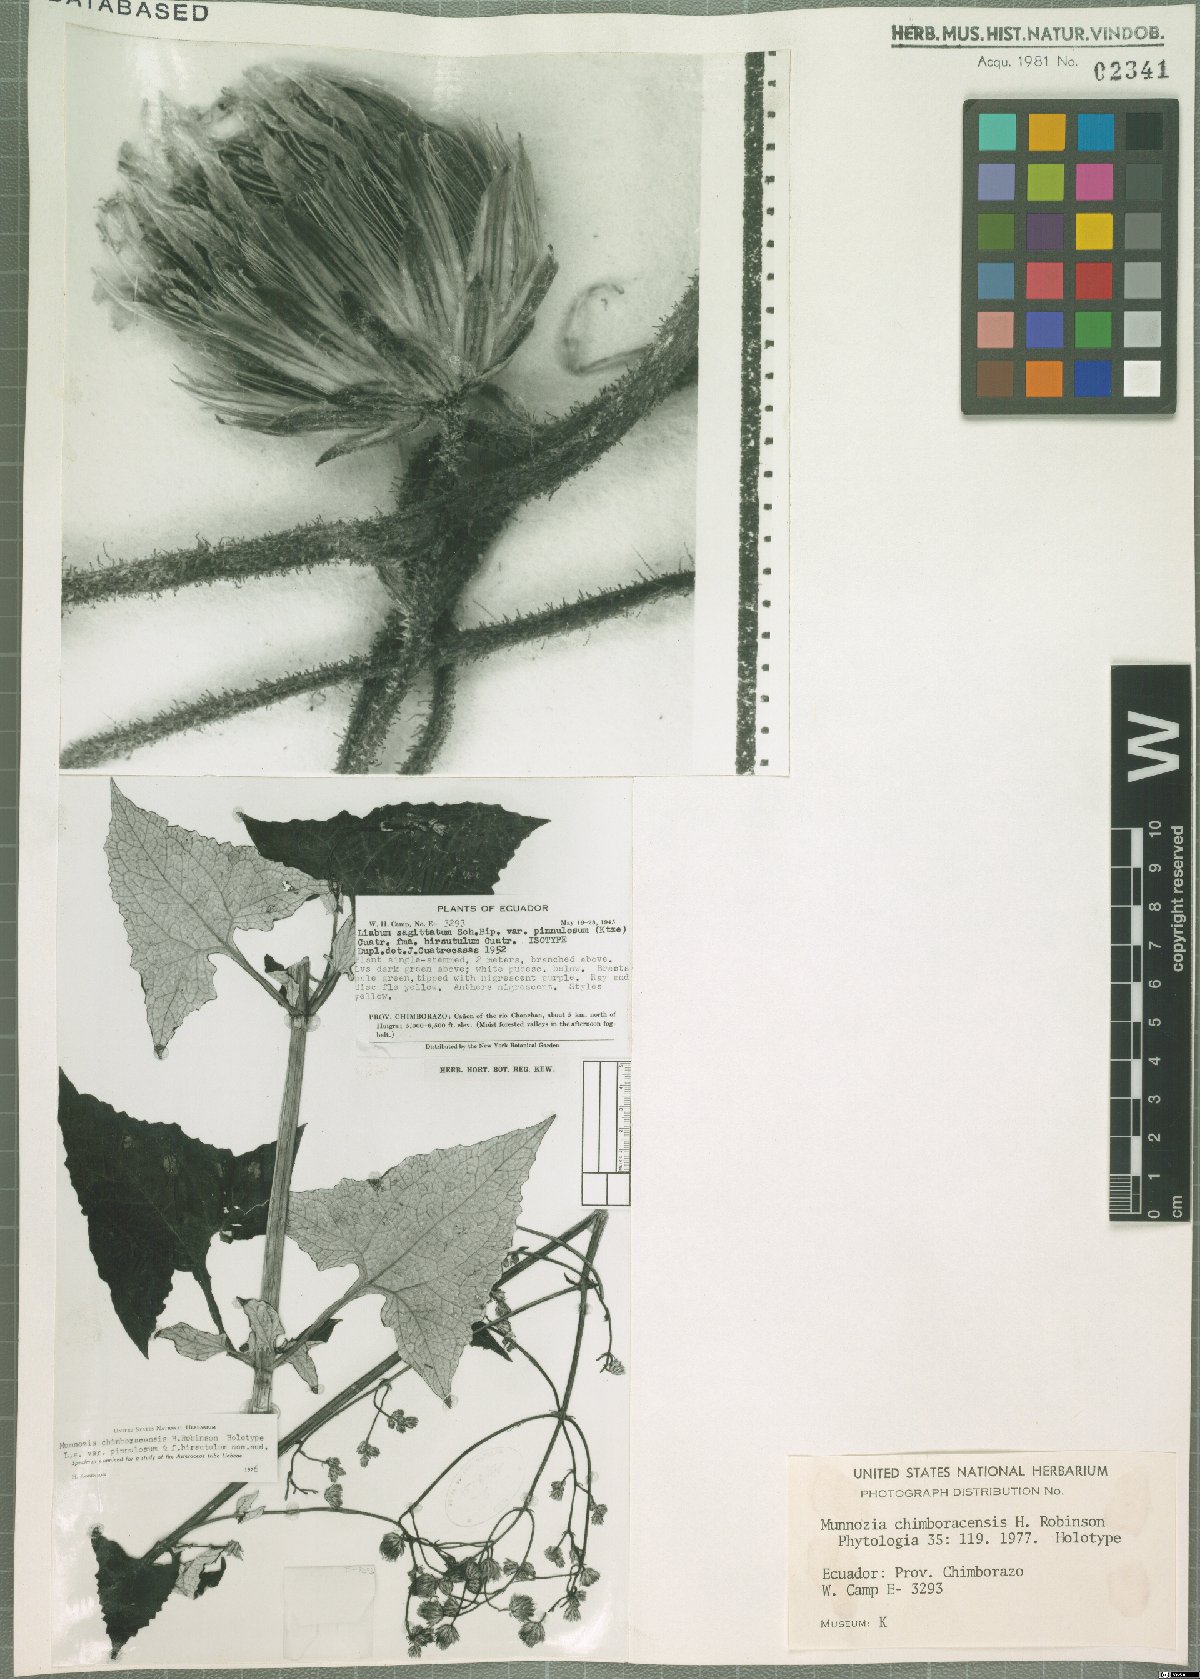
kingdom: Plantae
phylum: Tracheophyta
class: Magnoliopsida
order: Asterales
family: Asteraceae
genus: Munnozia
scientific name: Munnozia chimboracensis
